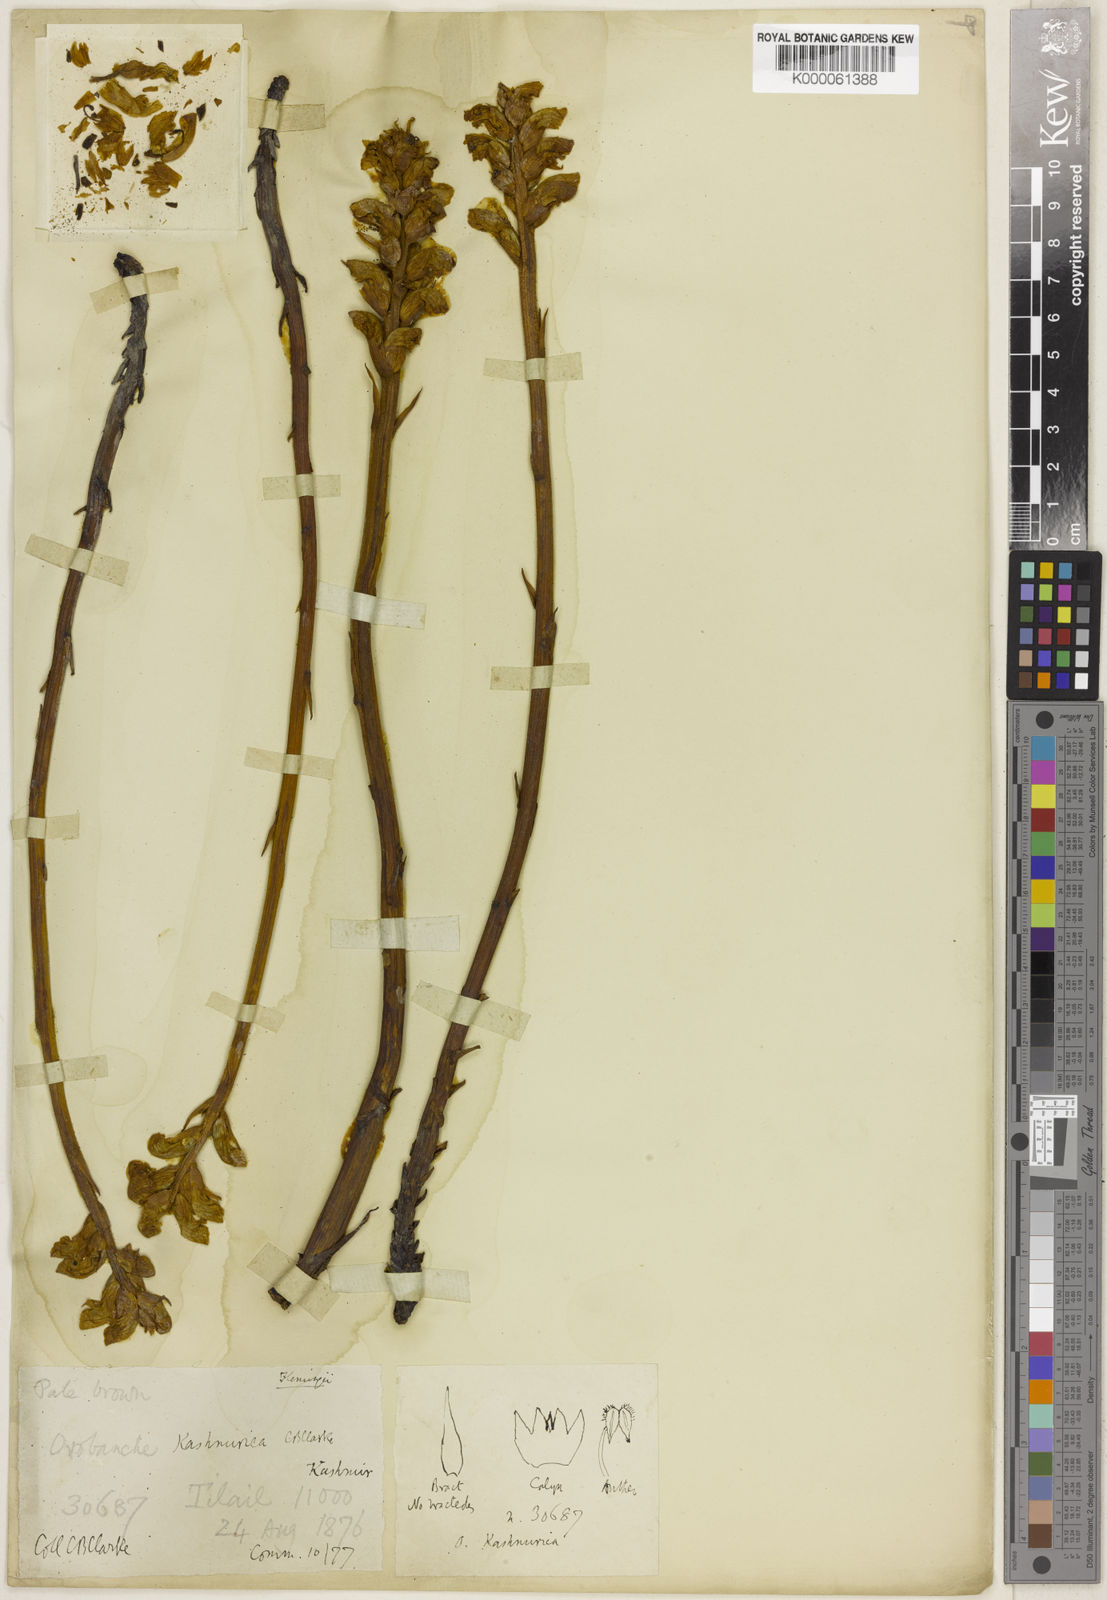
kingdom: Plantae
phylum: Tracheophyta
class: Magnoliopsida
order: Lamiales
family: Orobanchaceae
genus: Orobanche
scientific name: Orobanche
